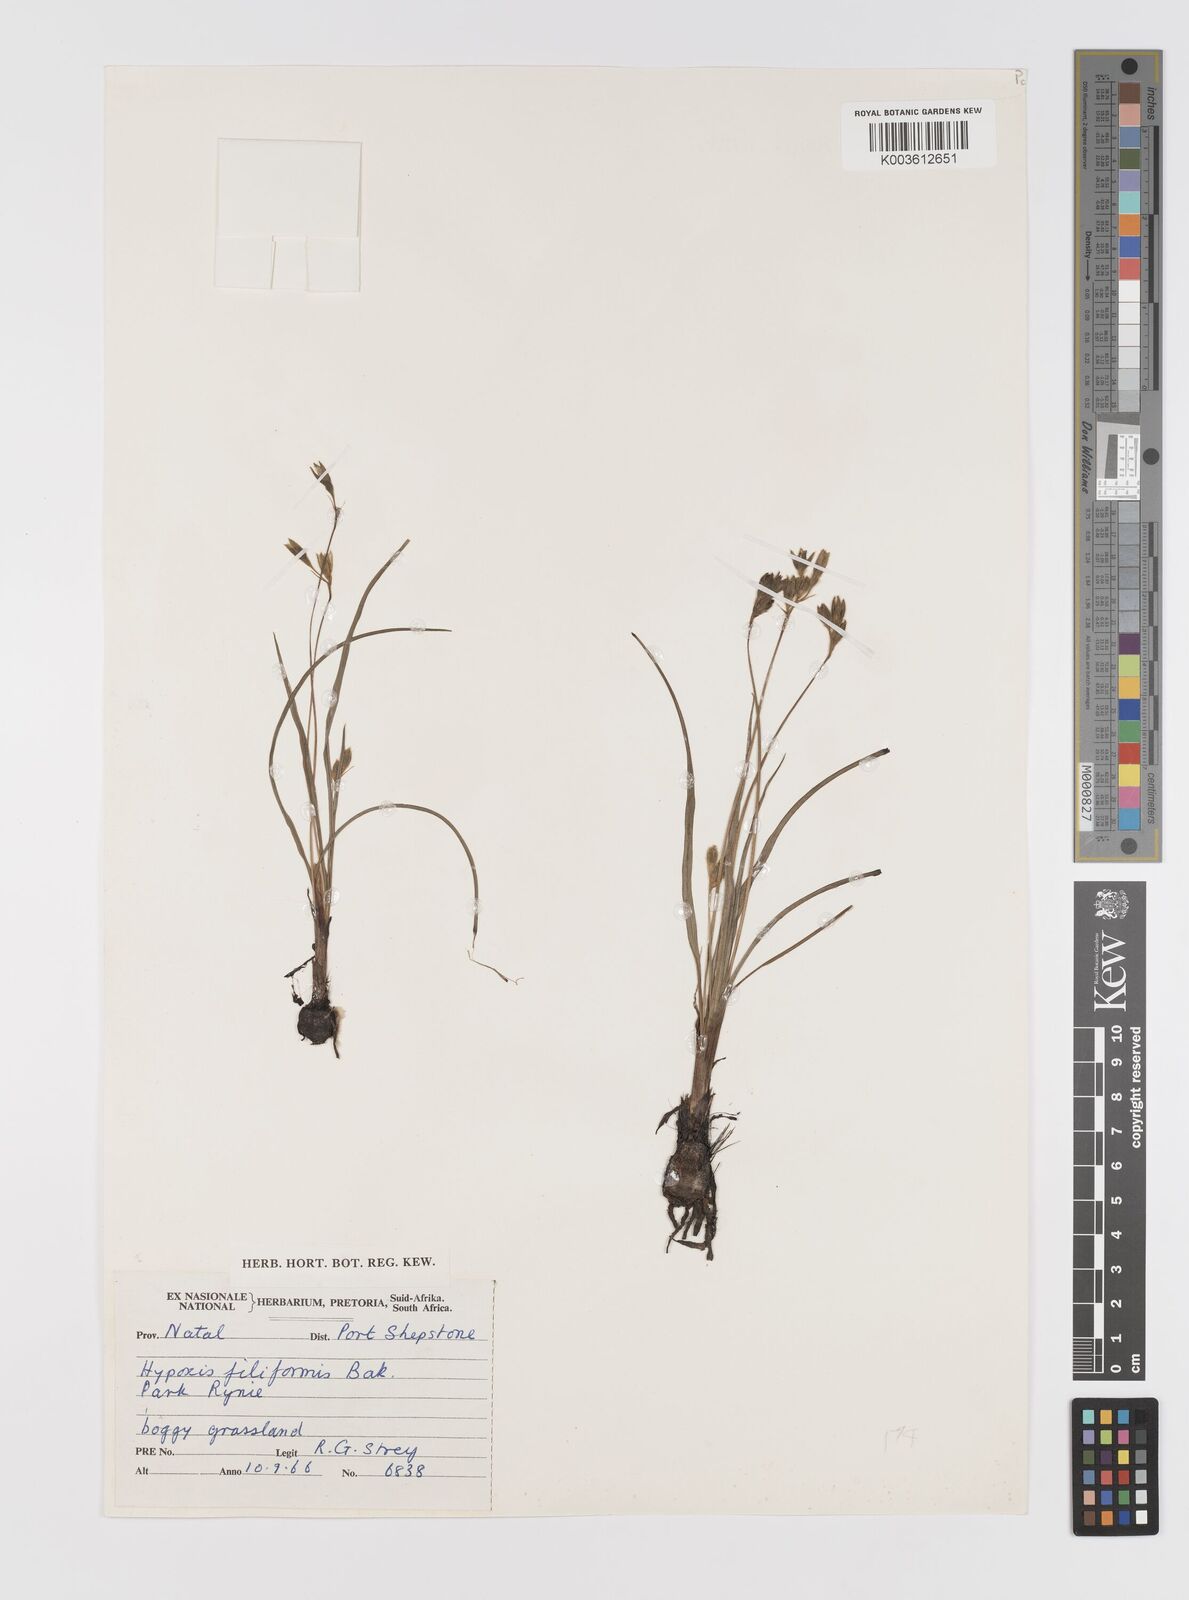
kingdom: Plantae
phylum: Tracheophyta
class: Liliopsida
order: Asparagales
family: Hypoxidaceae
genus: Hypoxis
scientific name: Hypoxis filiformis
